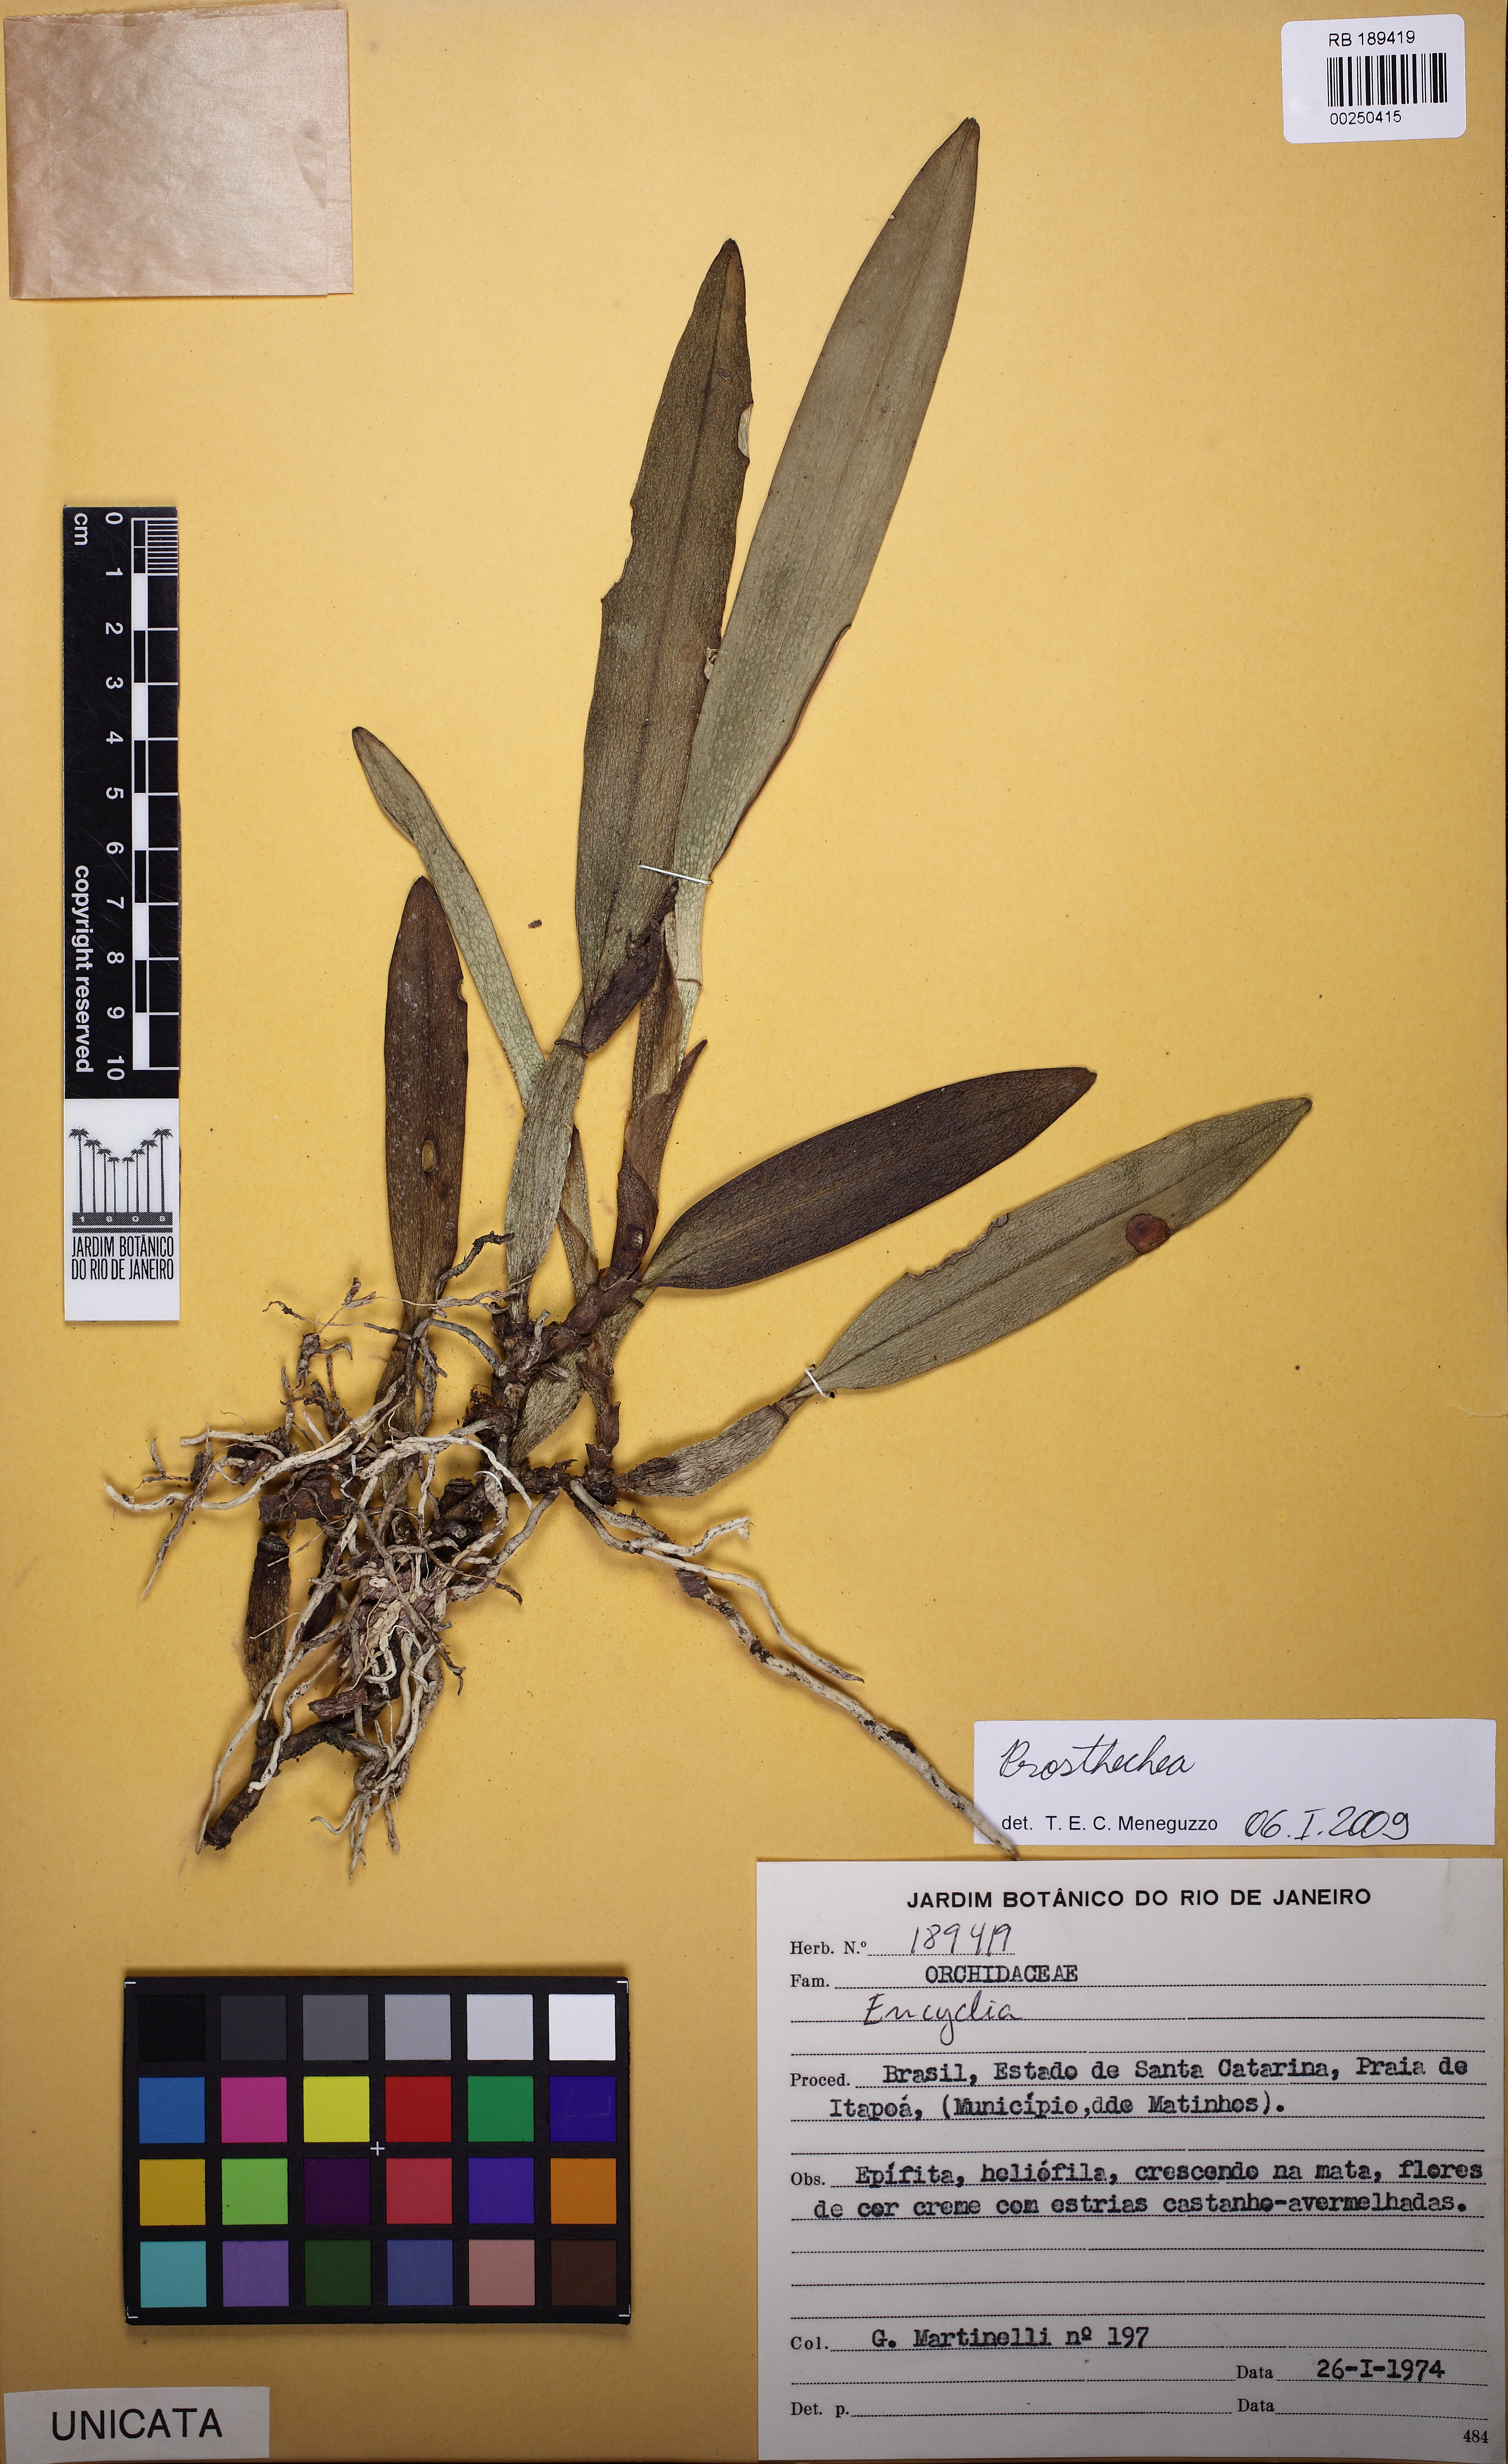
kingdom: Plantae
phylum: Tracheophyta
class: Liliopsida
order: Asparagales
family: Orchidaceae
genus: Prosthechea
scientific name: Prosthechea aemula
